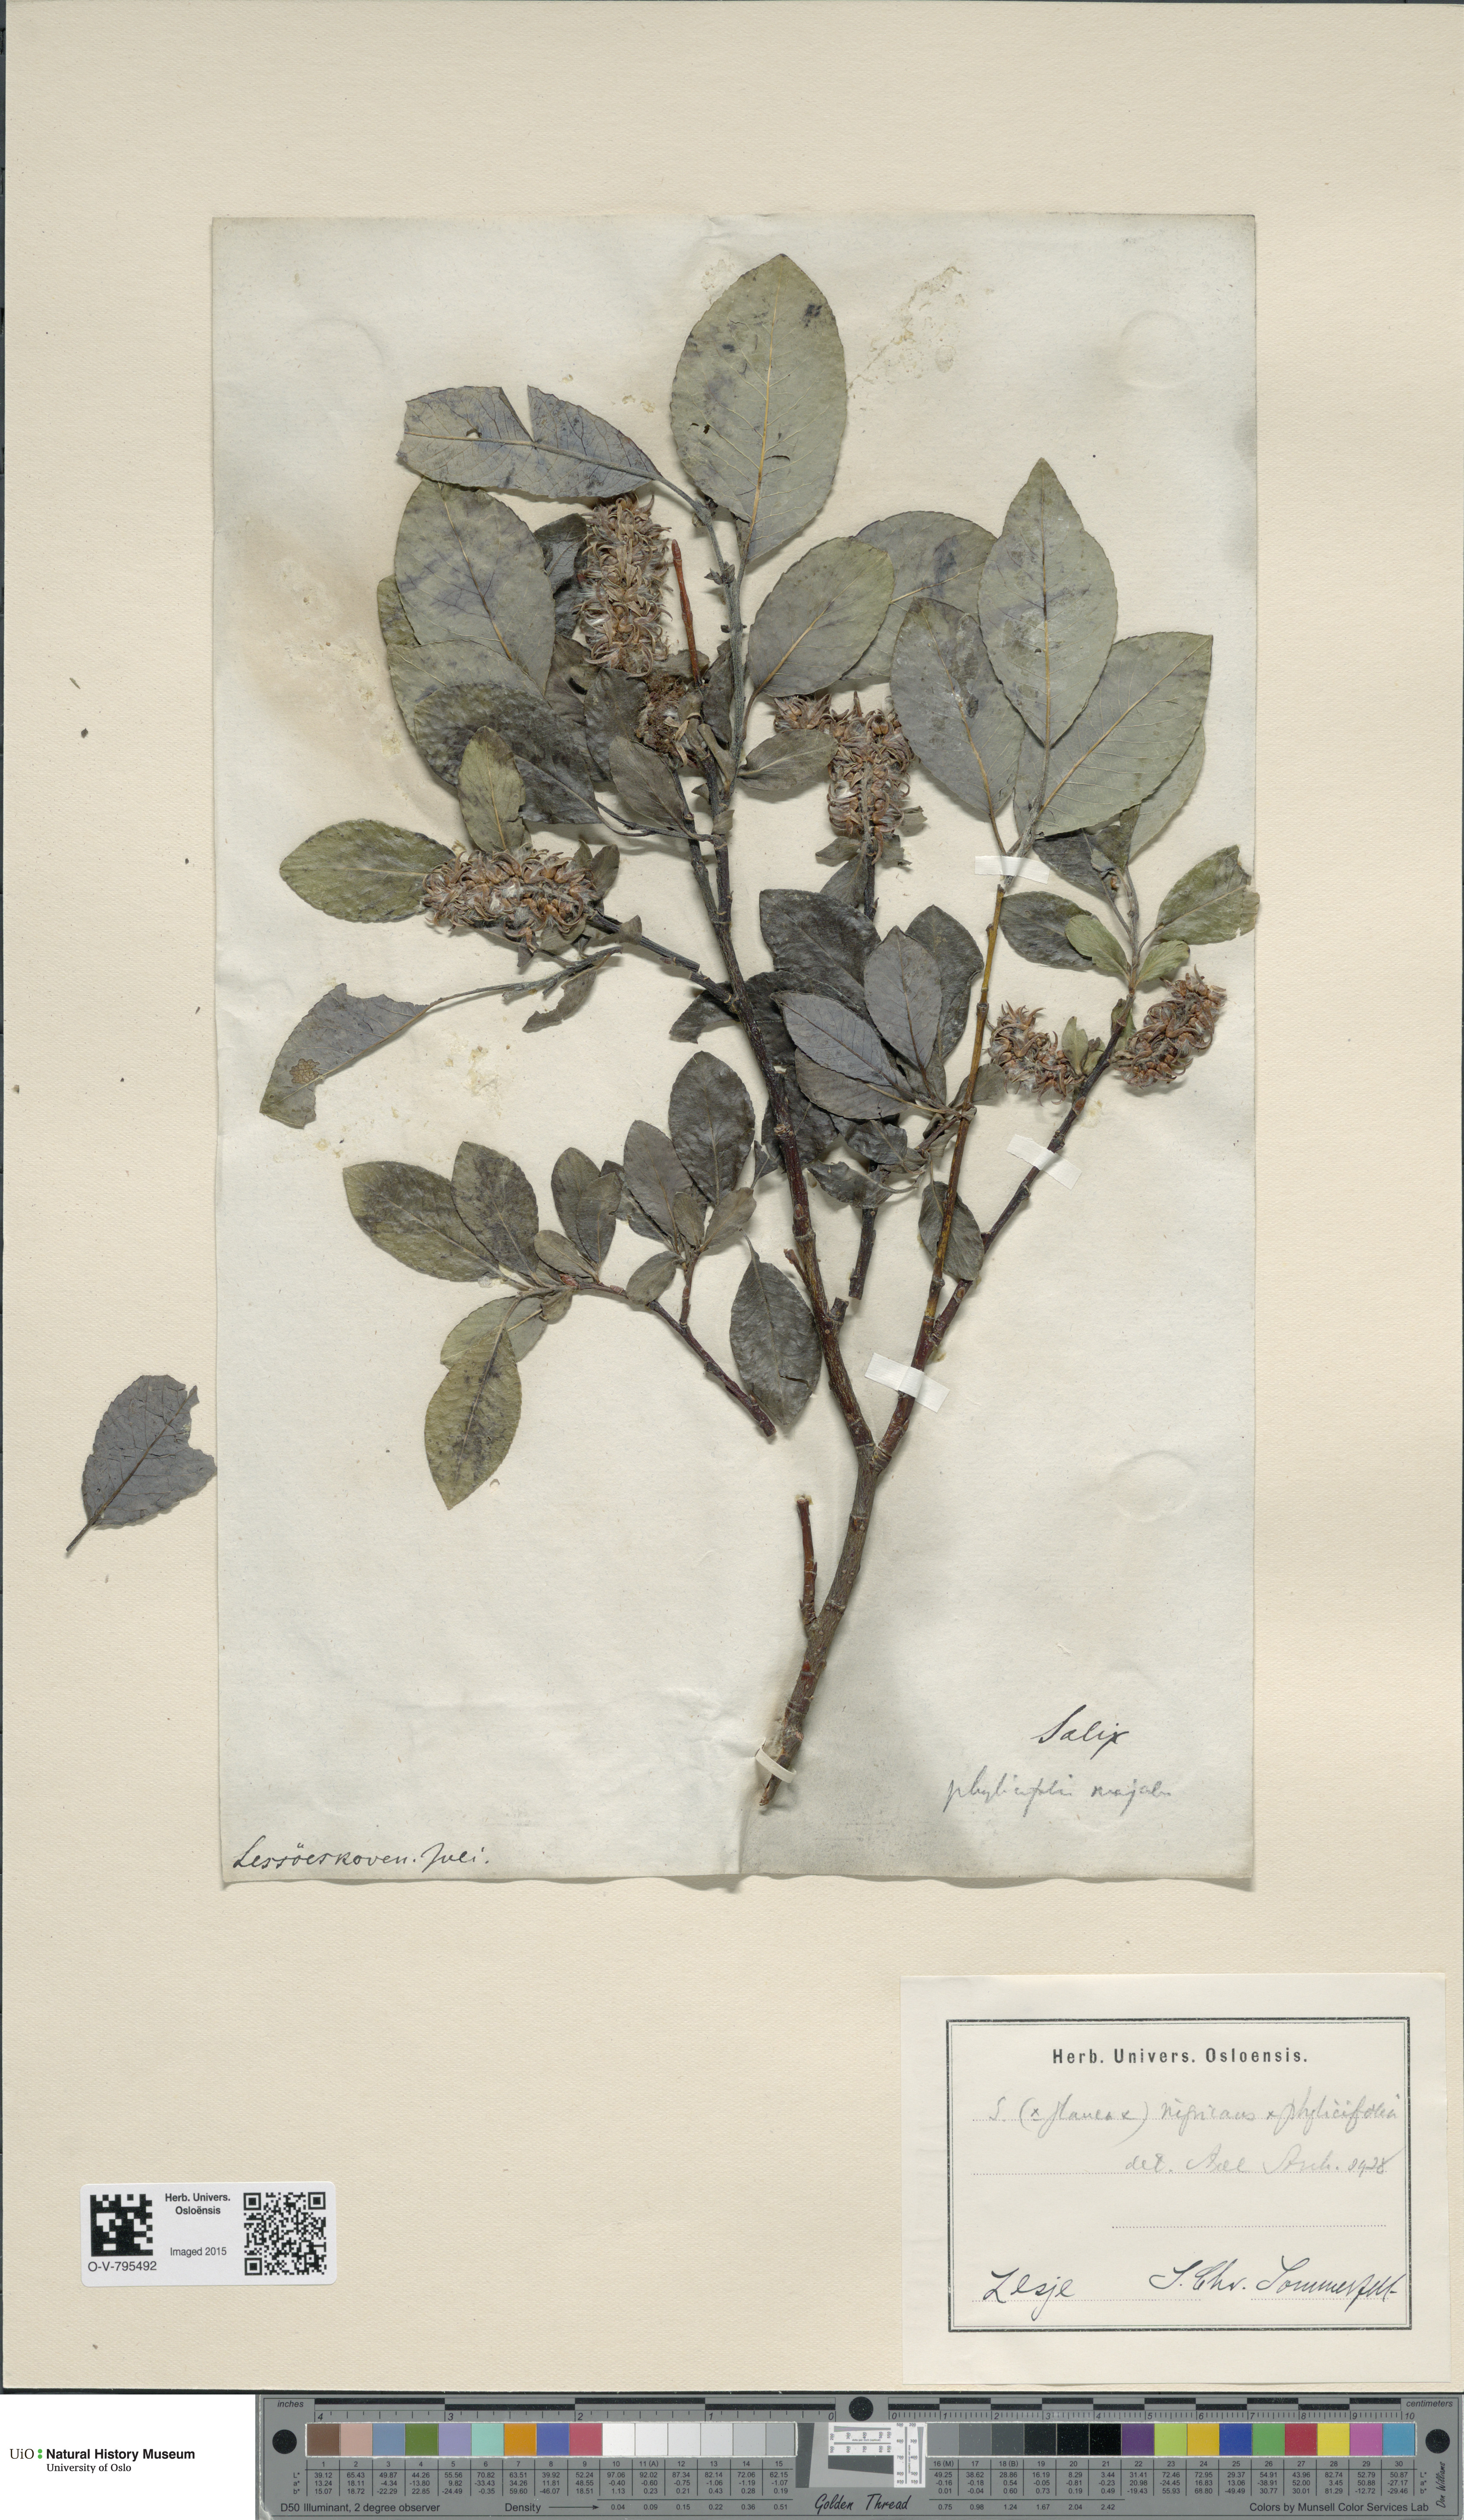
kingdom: Plantae
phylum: Tracheophyta
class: Magnoliopsida
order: Malpighiales
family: Salicaceae
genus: Salix
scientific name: Salix
